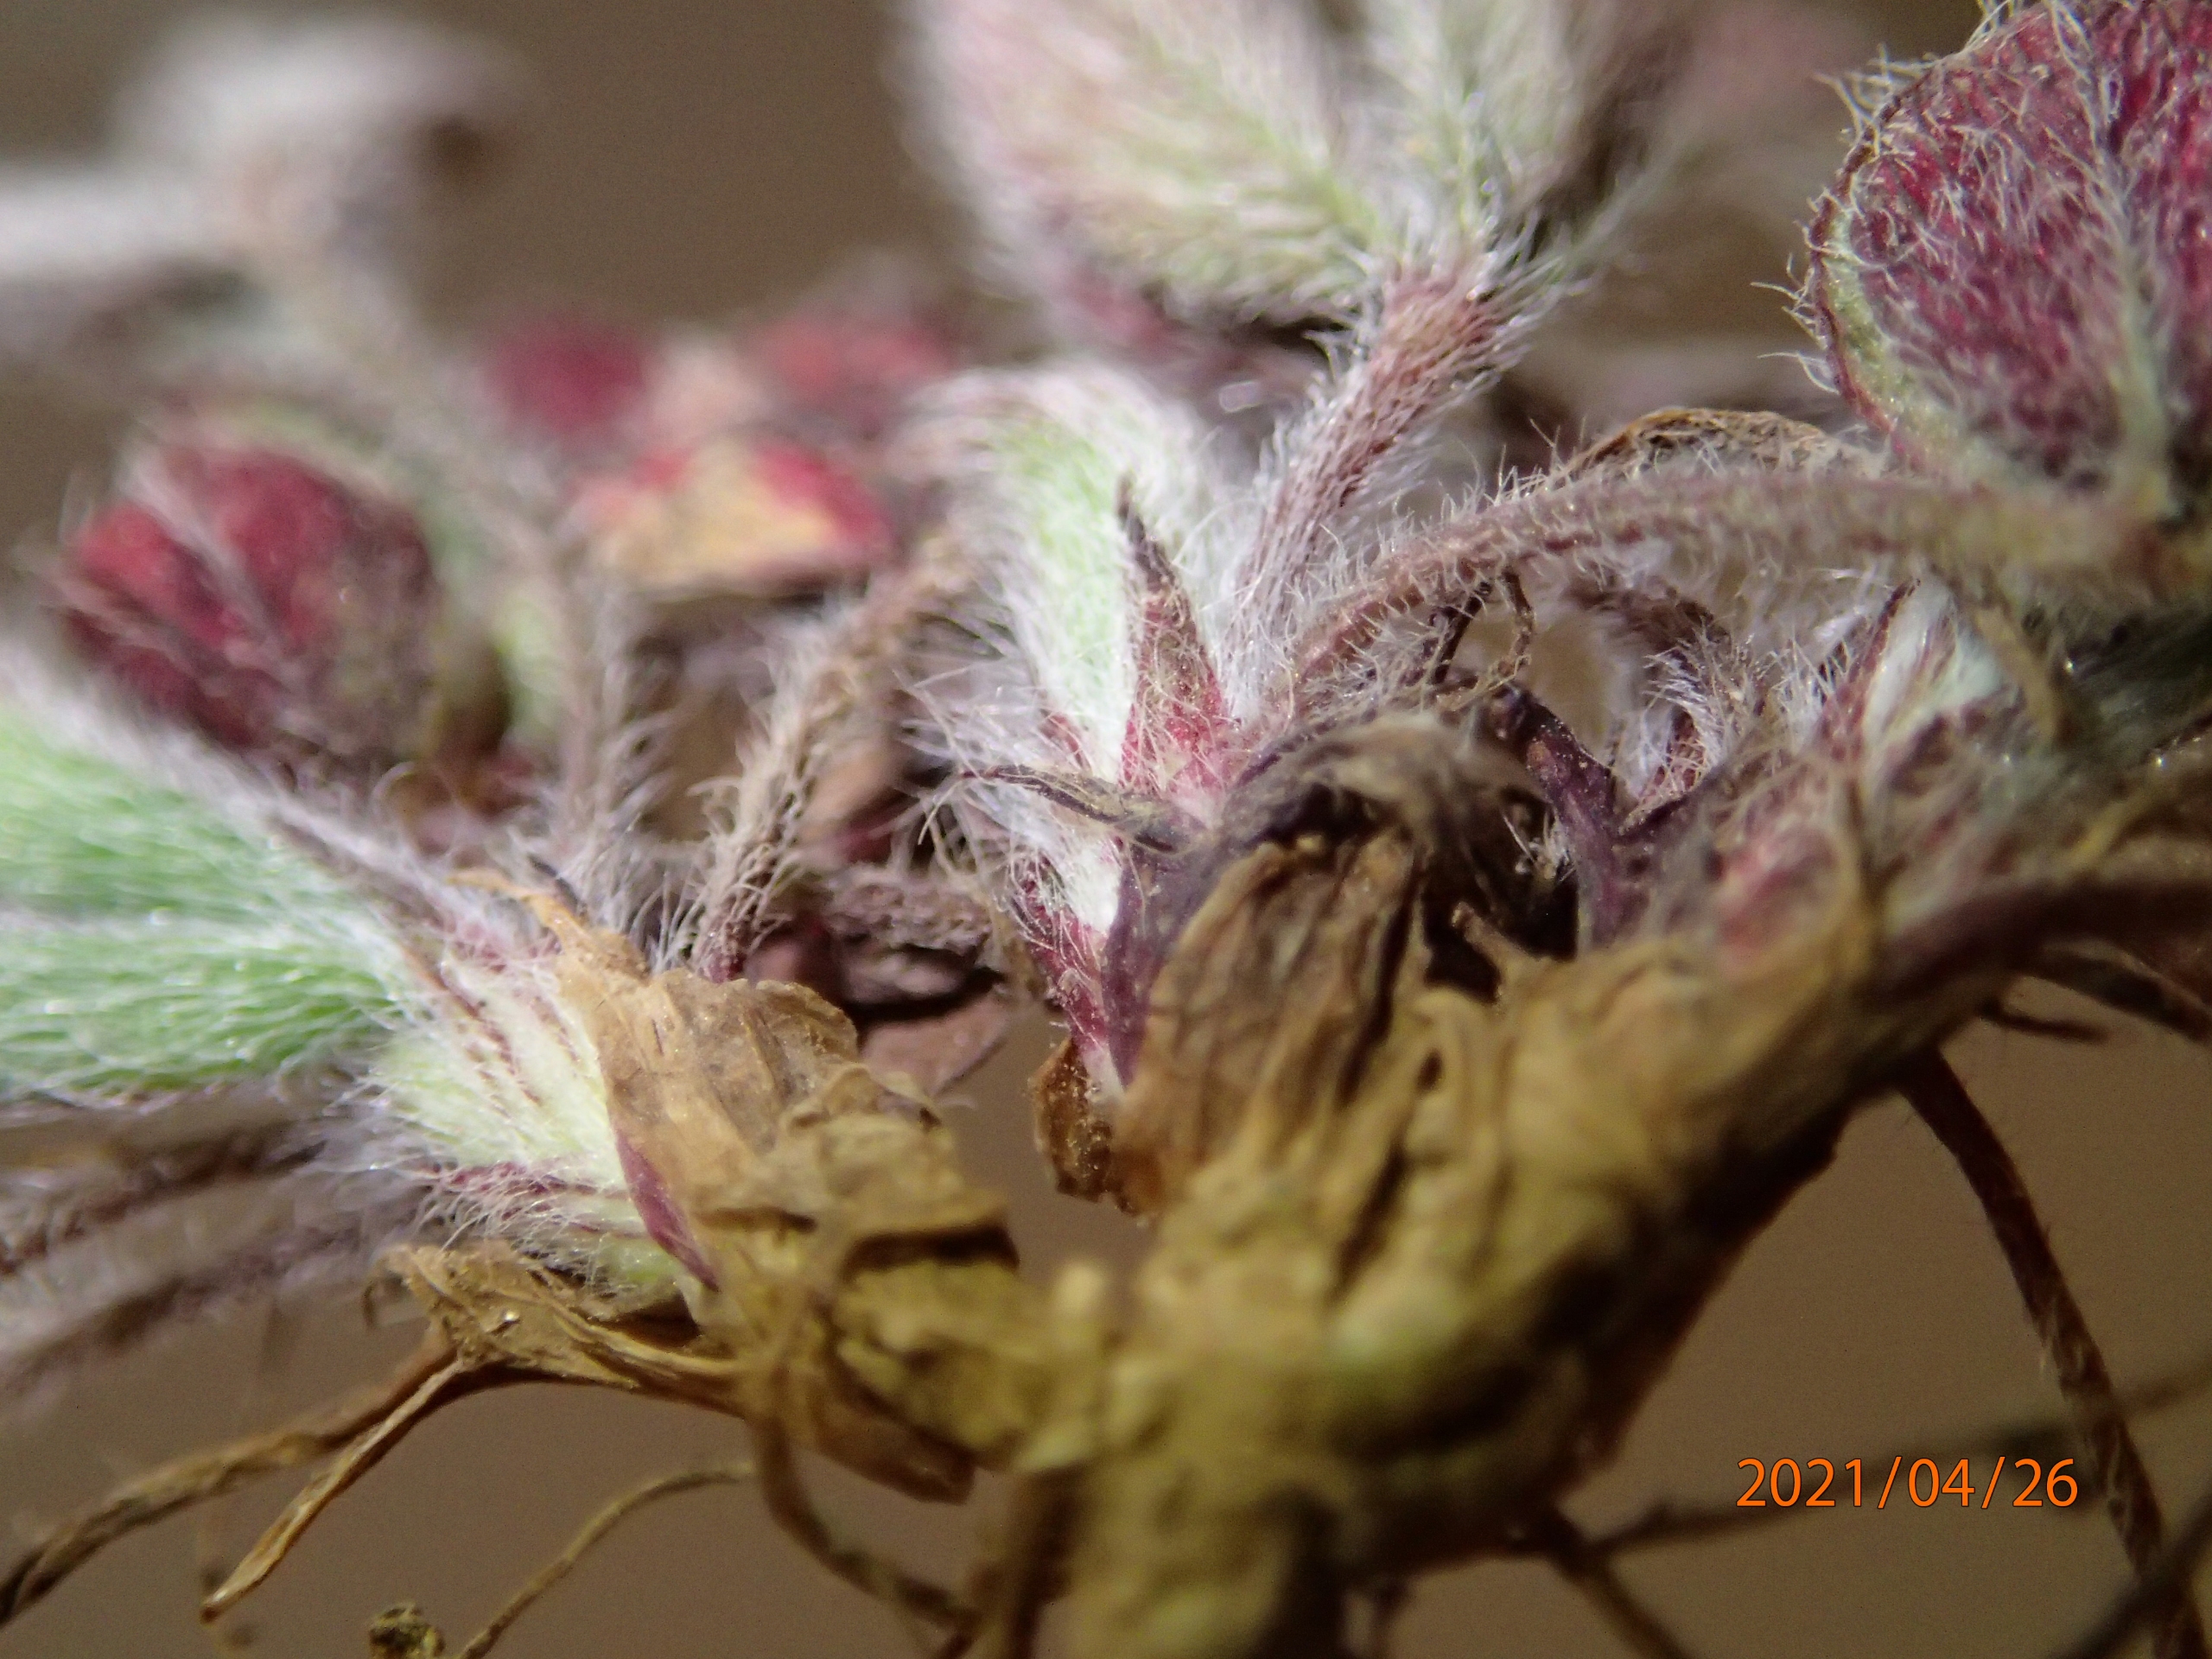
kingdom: Plantae
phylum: Tracheophyta
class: Magnoliopsida
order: Fabales
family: Fabaceae
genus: Trifolium
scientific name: Trifolium striatum
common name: Stribet kløver
